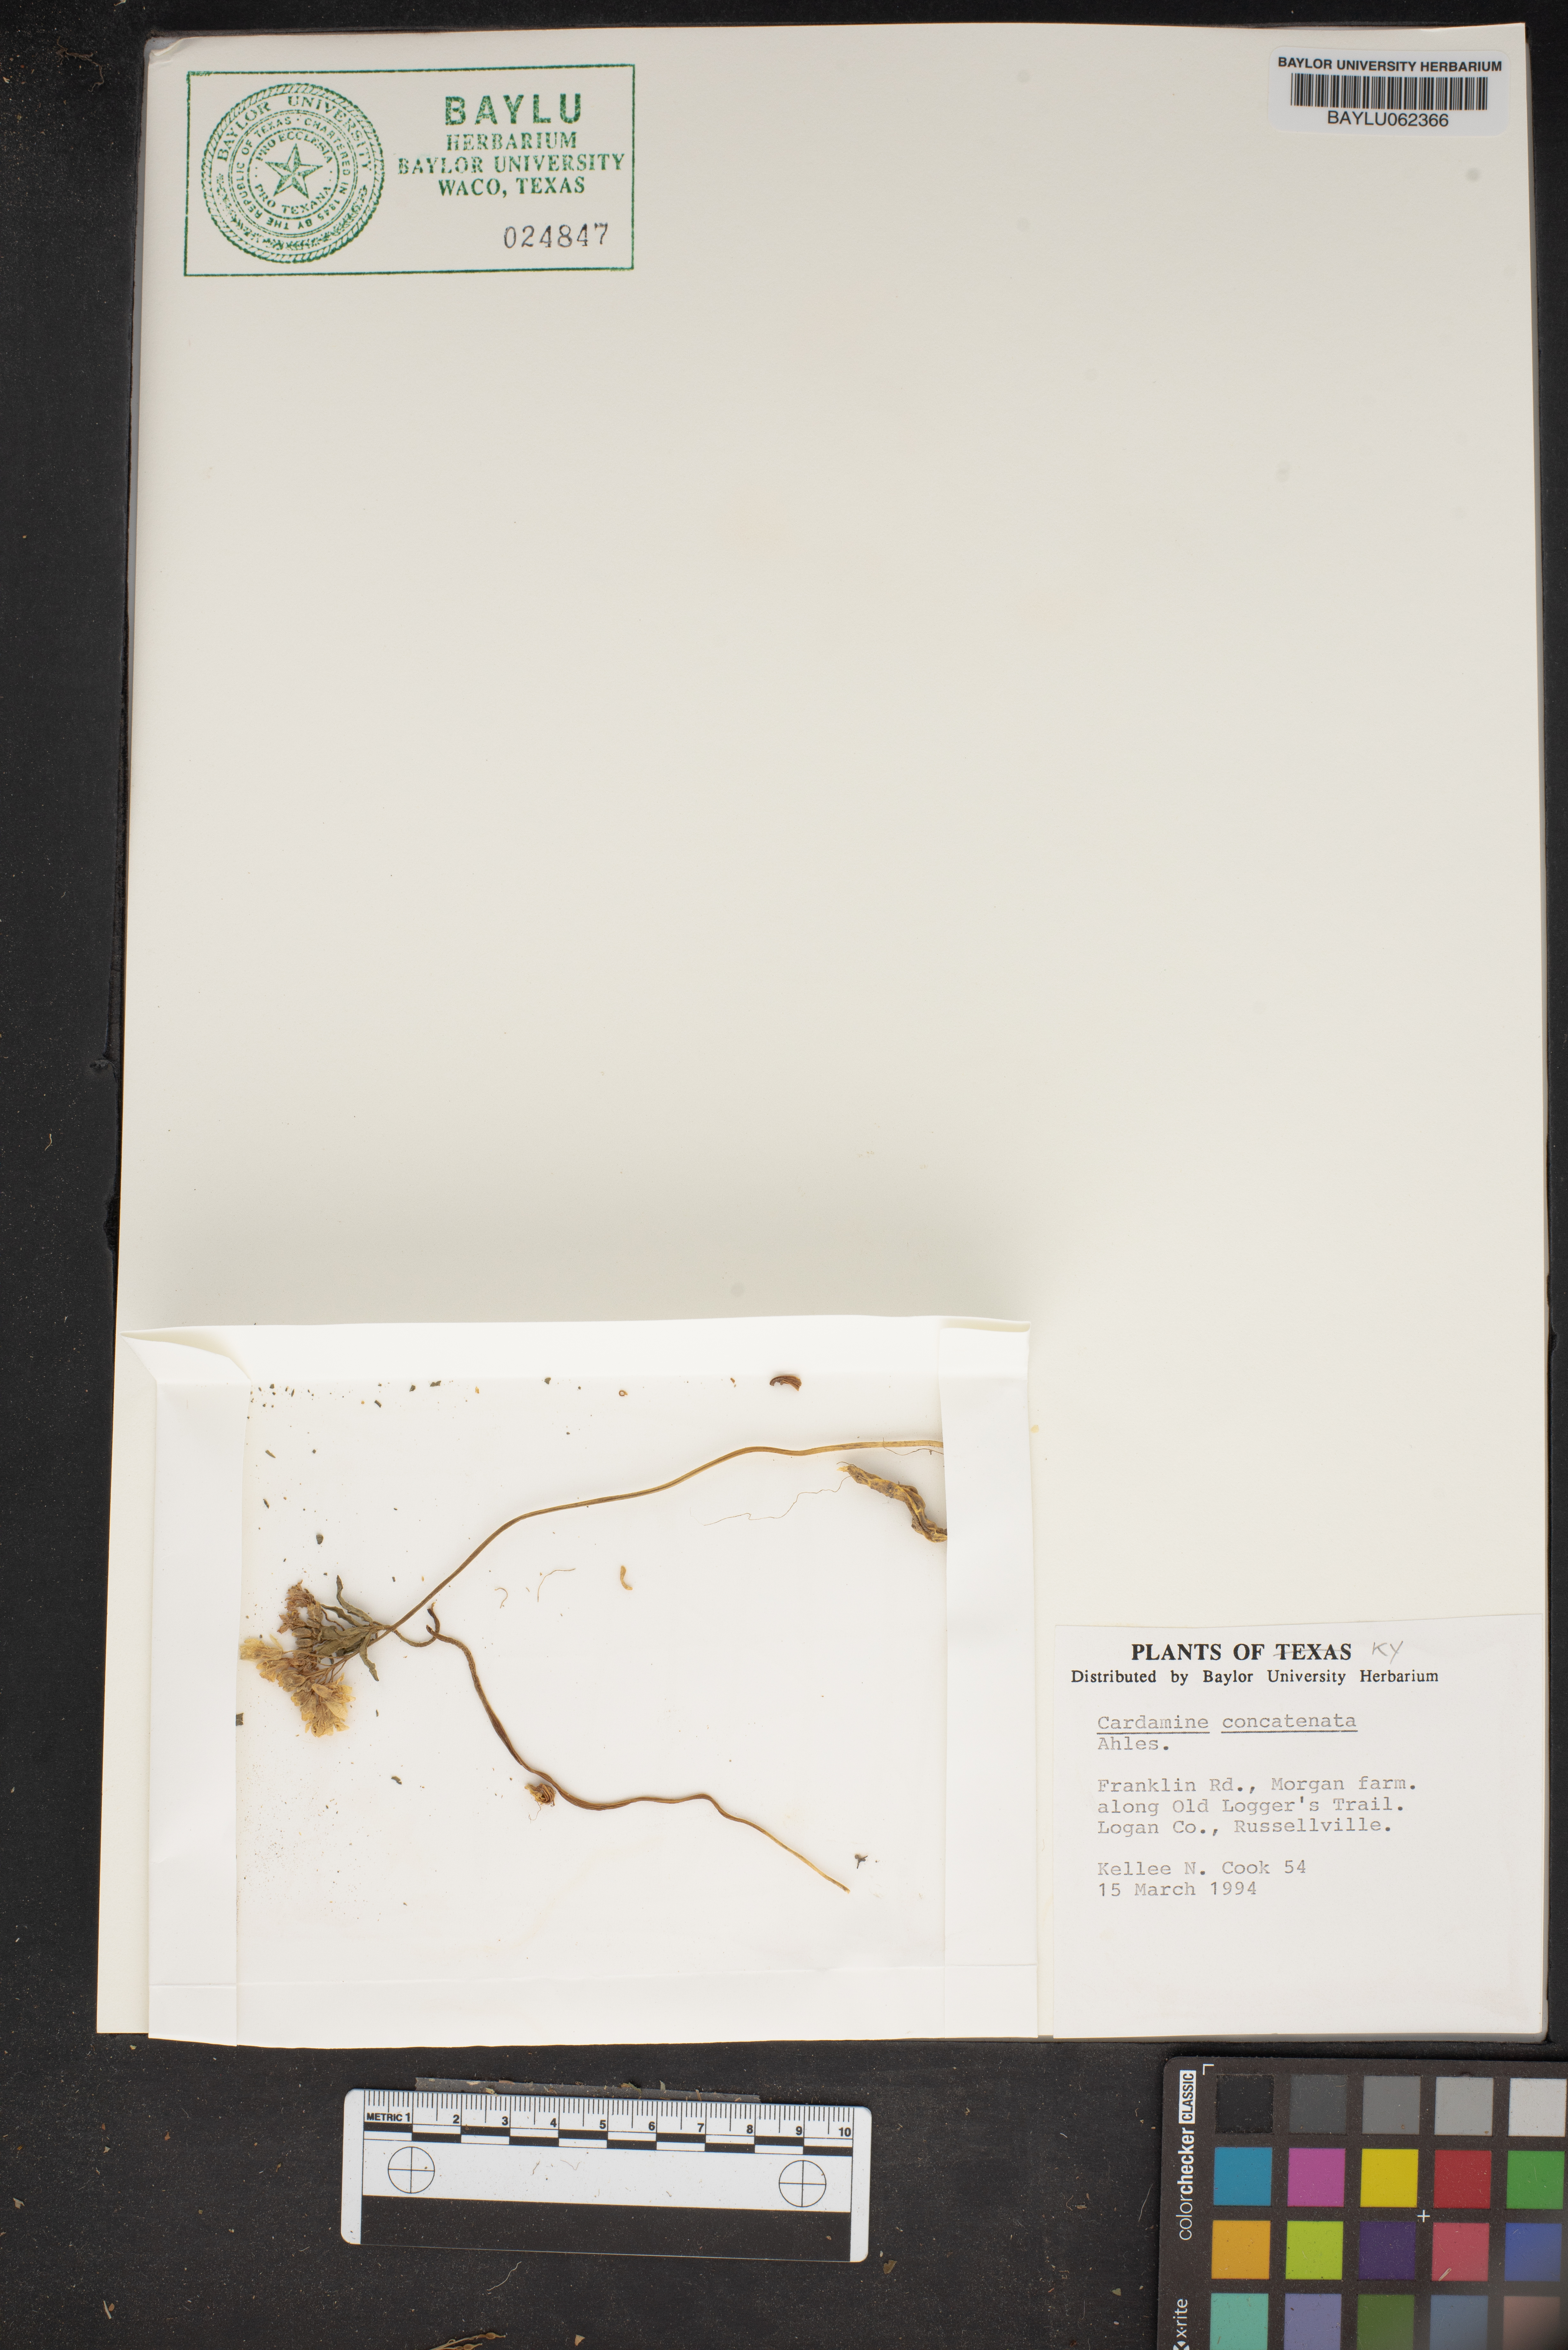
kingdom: Plantae
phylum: Tracheophyta
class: Magnoliopsida
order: Brassicales
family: Brassicaceae
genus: Cardamine
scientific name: Cardamine concatenata
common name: Cut-leaf toothcup
